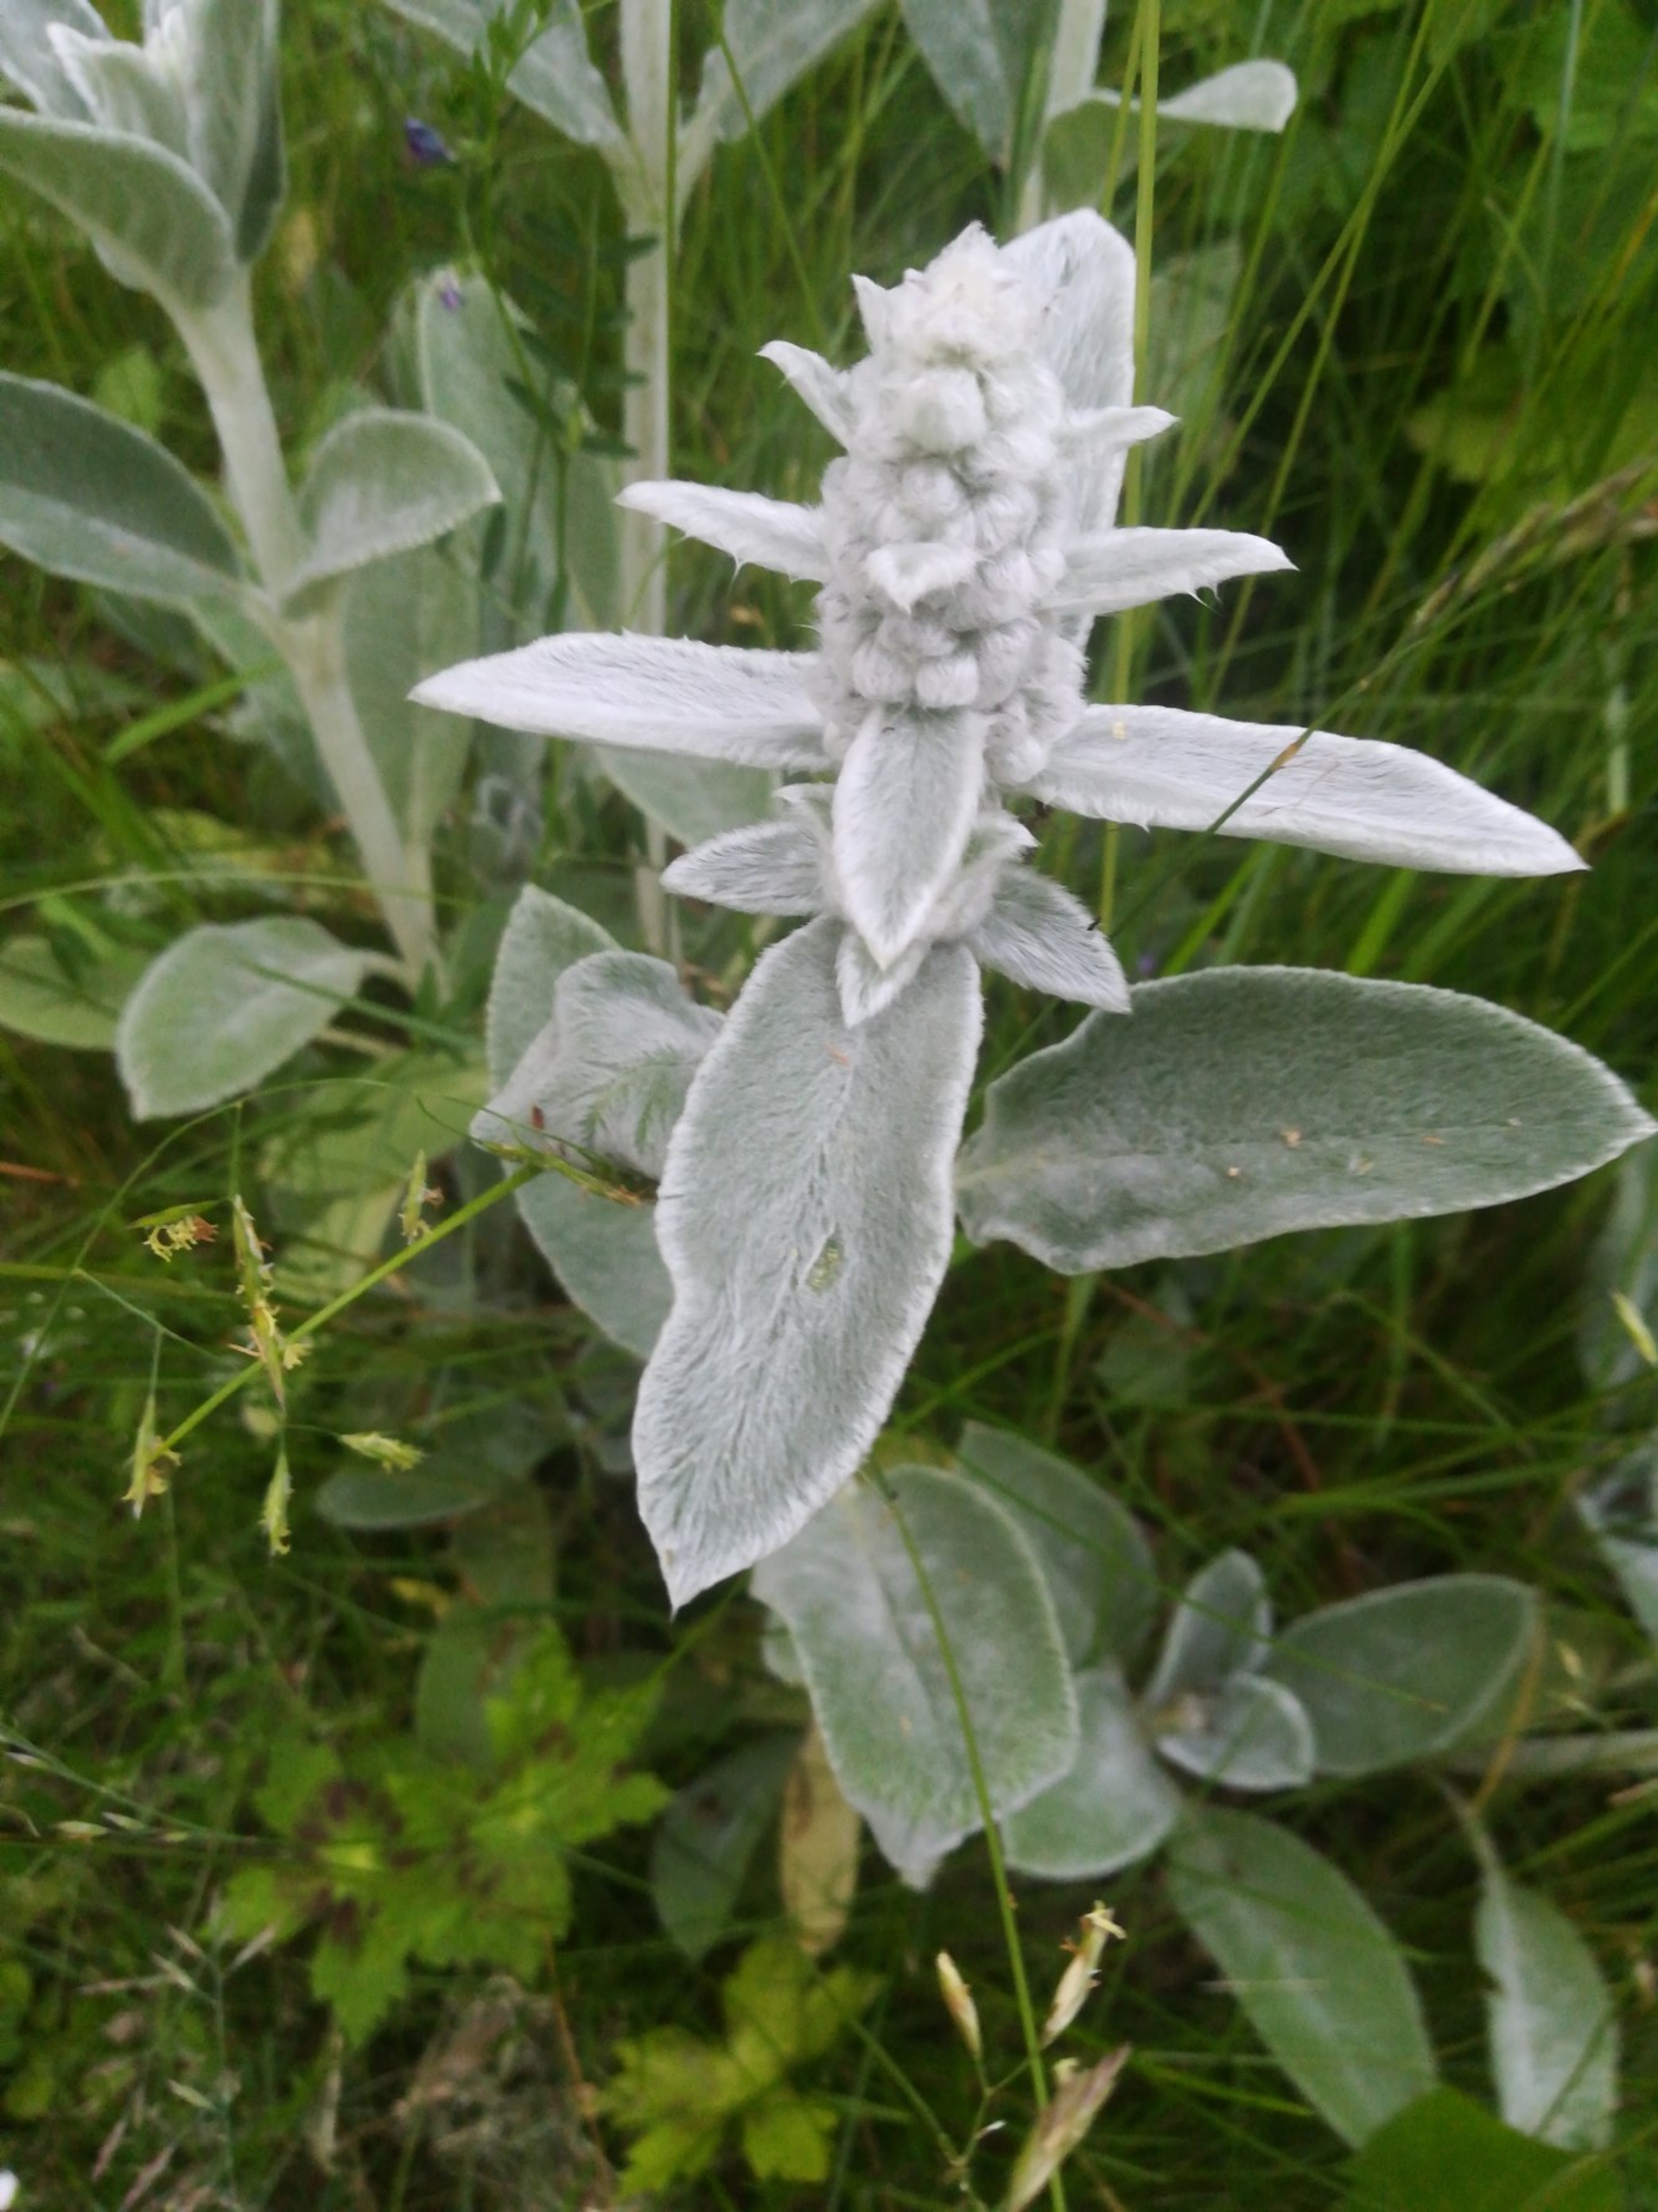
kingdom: Plantae
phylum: Tracheophyta
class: Magnoliopsida
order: Lamiales
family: Lamiaceae
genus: Stachys
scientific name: Stachys byzantina
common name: Lammeøre
